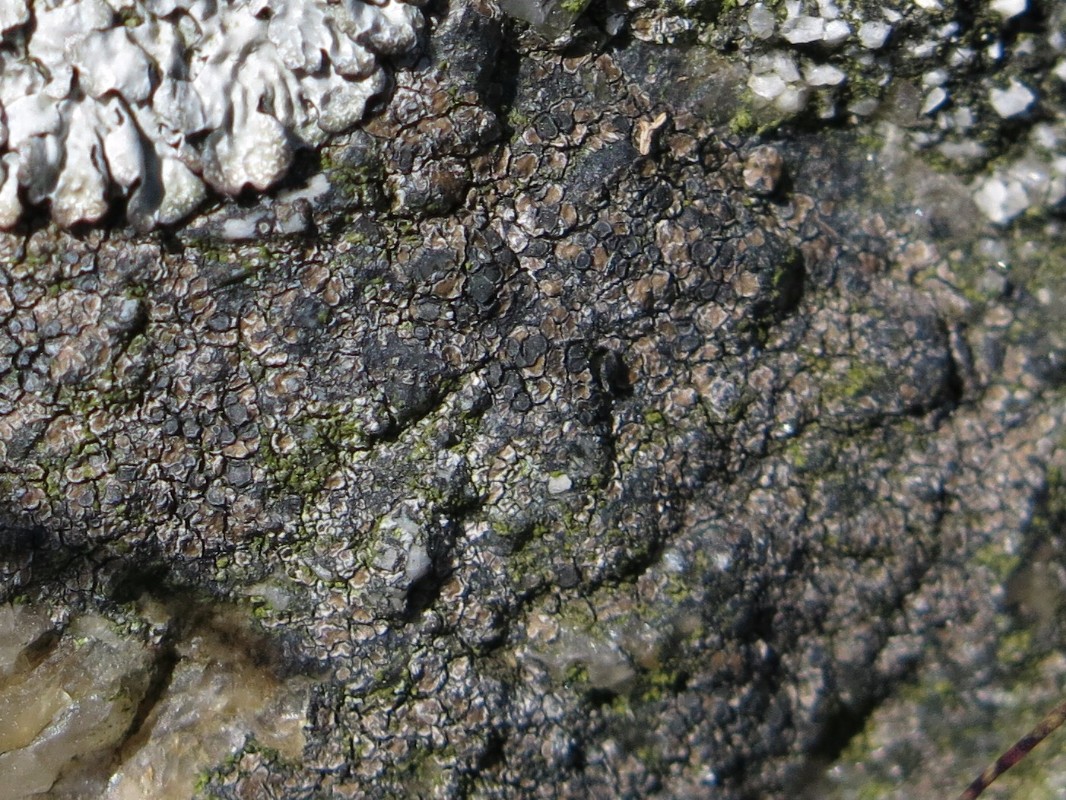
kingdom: Fungi
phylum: Ascomycota
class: Lecanoromycetes
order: Lecideales
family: Lecideaceae
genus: Lecidea
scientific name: Lecidea fuscoatra
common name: rudret skivelav
